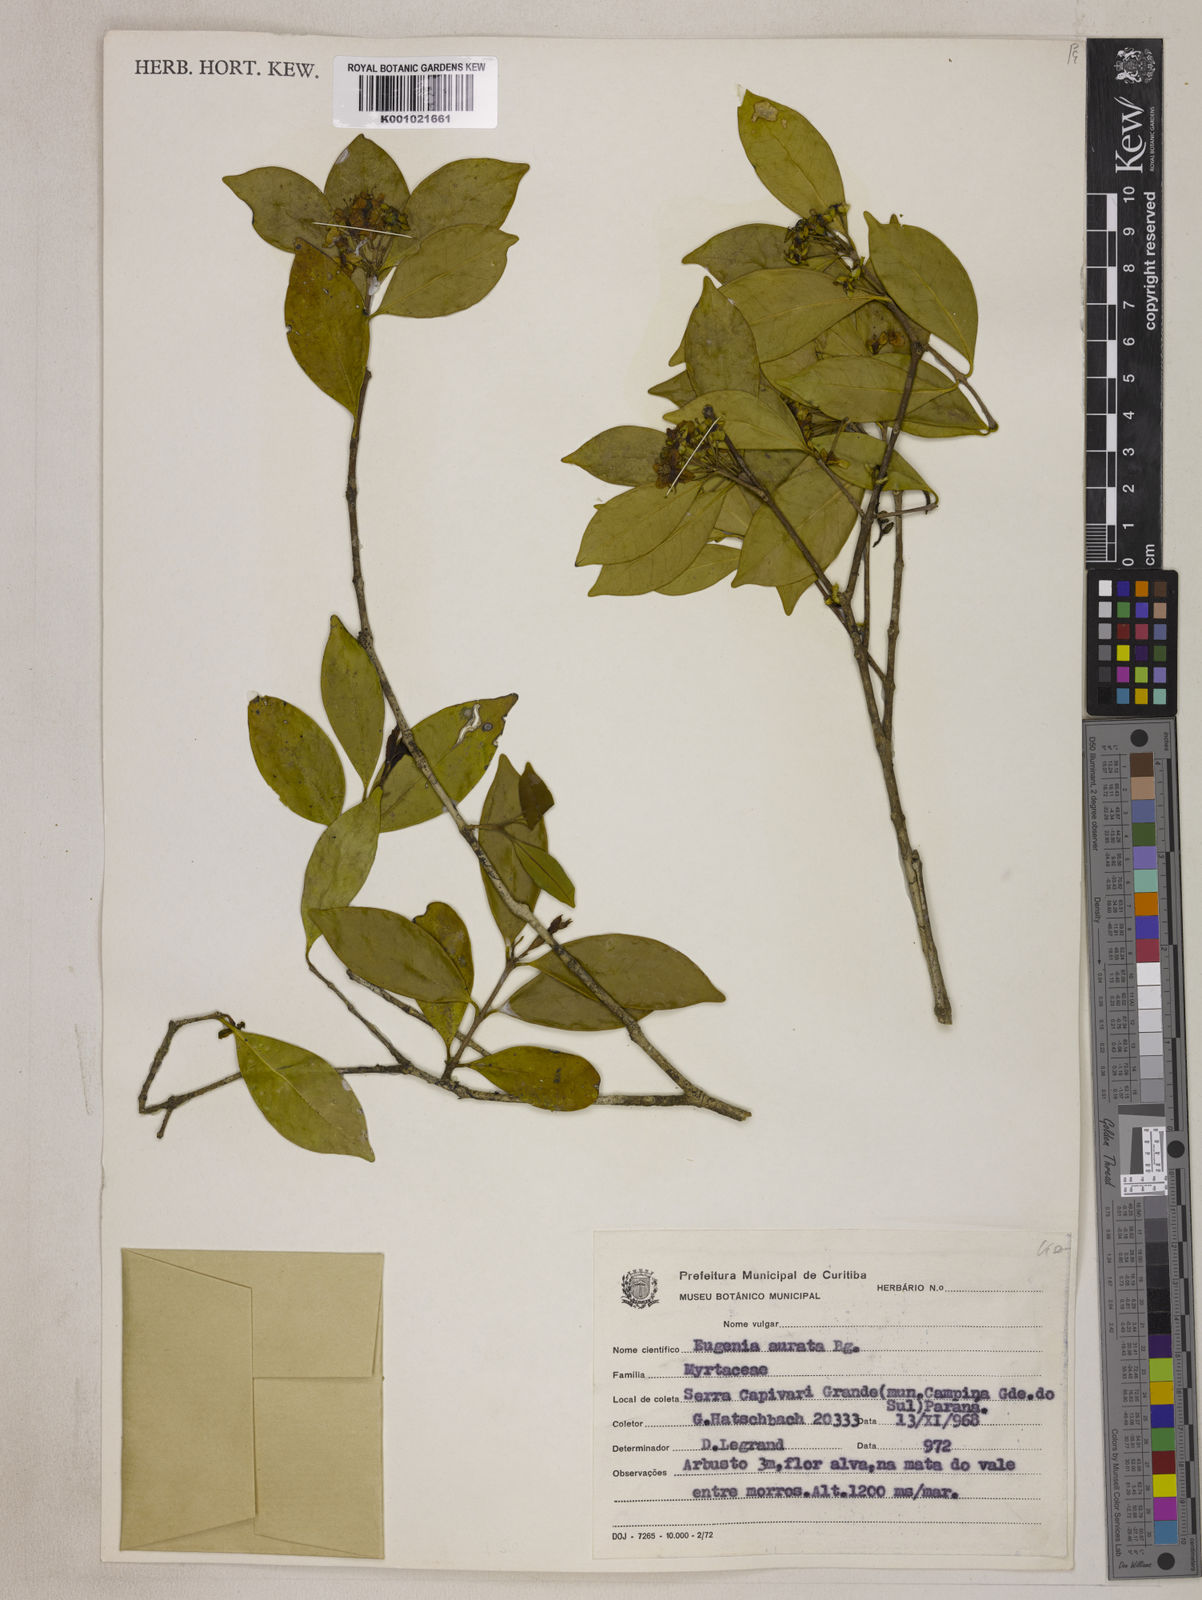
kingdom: Plantae
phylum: Tracheophyta
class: Magnoliopsida
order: Myrtales
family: Myrtaceae
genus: Eugenia
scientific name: Eugenia aurata
